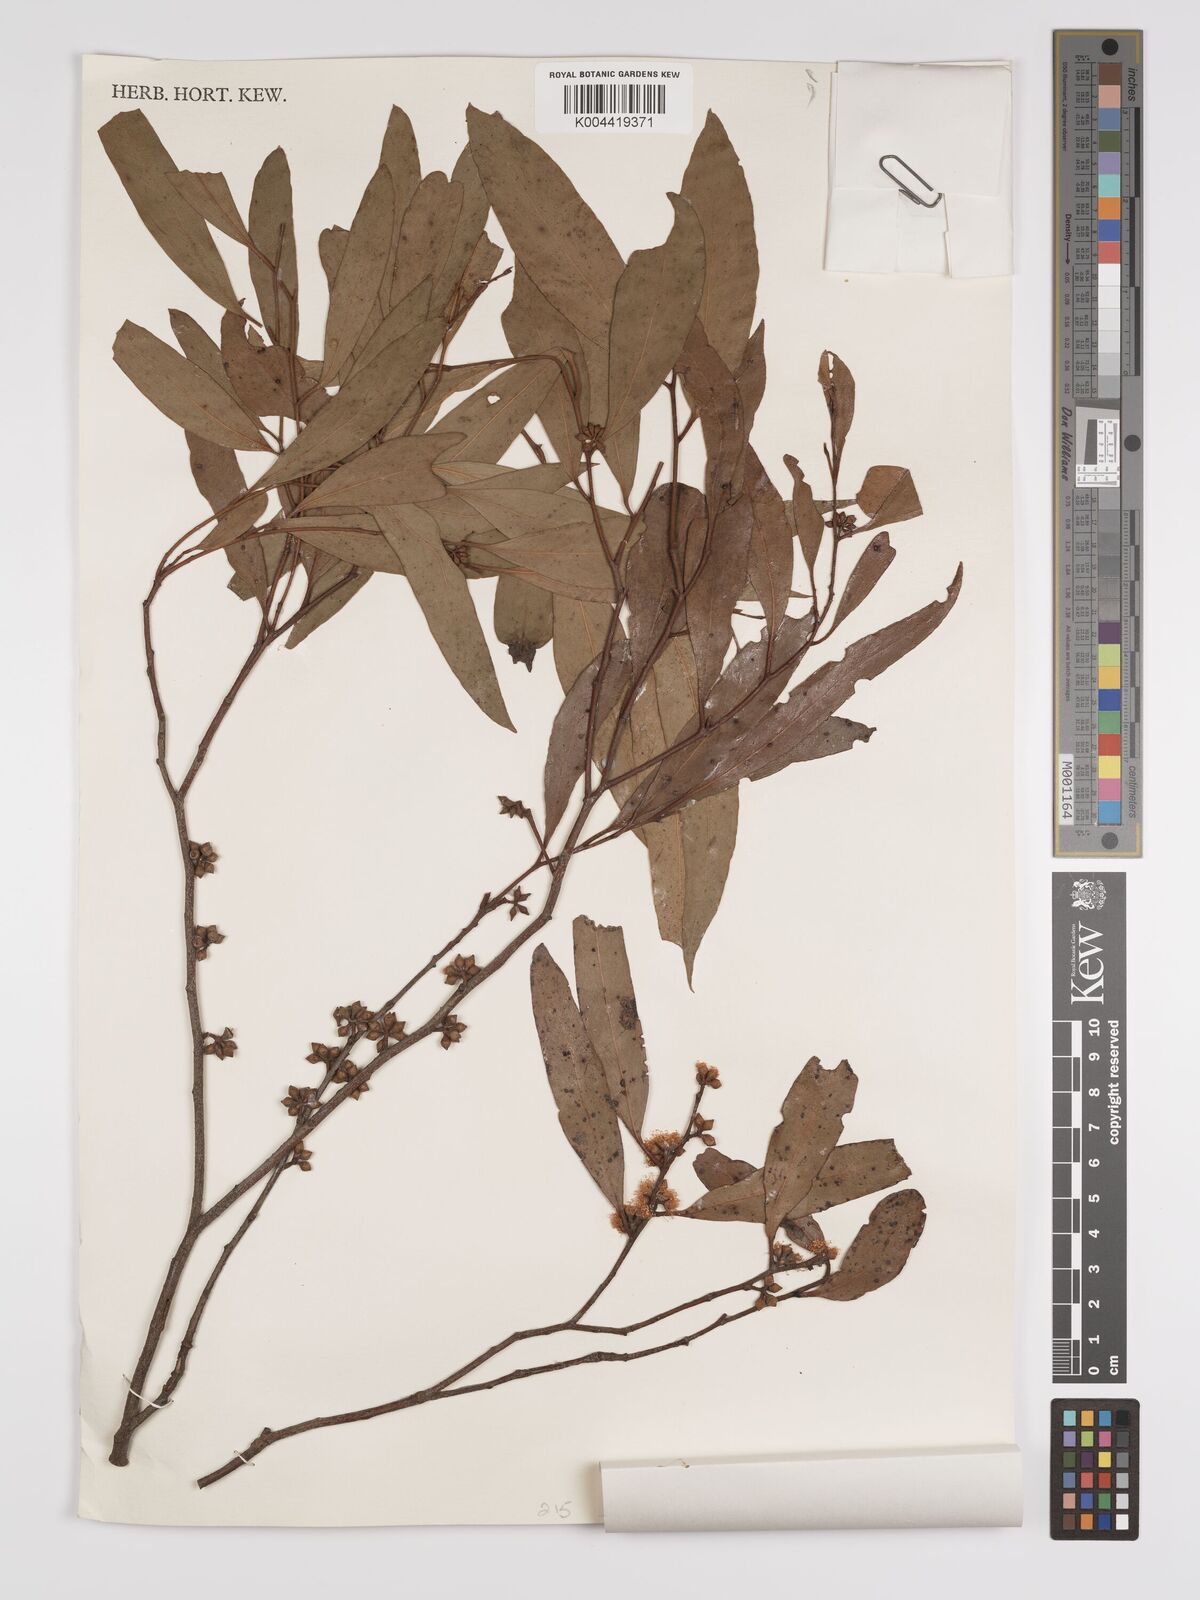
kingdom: Plantae
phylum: Tracheophyta
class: Magnoliopsida
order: Myrtales
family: Myrtaceae
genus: Eucalyptus
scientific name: Eucalyptus aggregata
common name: Black gum
